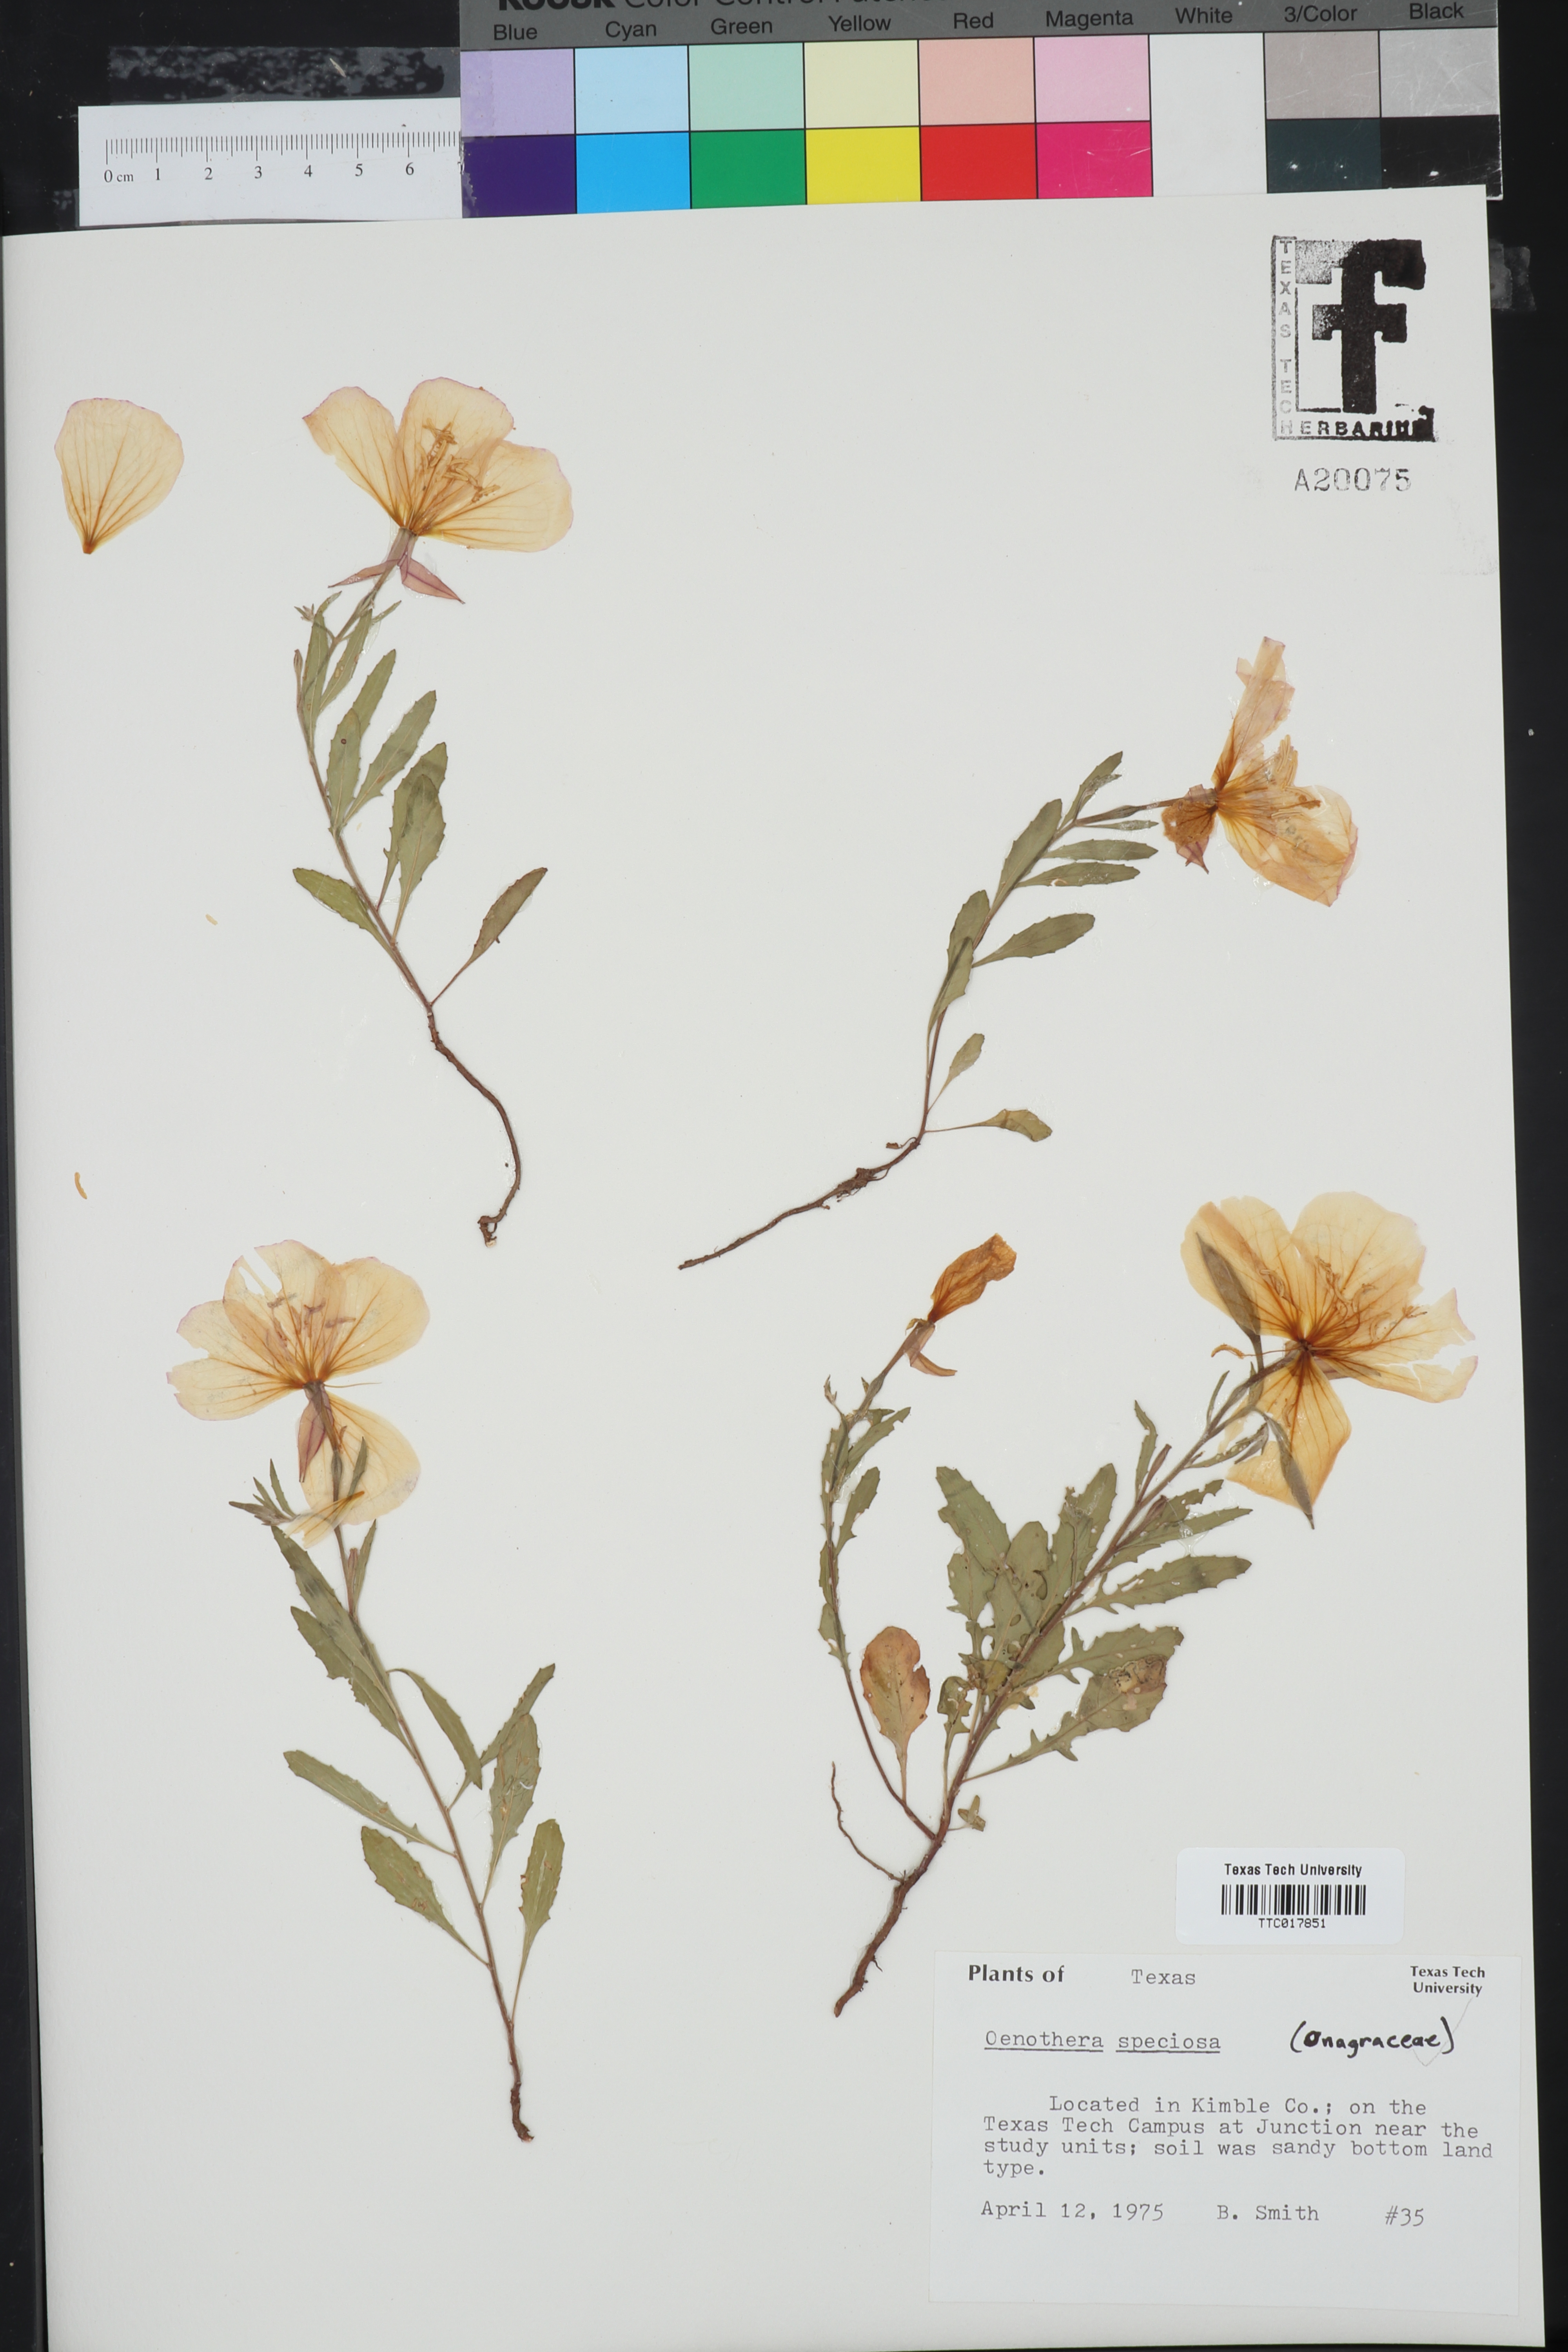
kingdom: Plantae
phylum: Tracheophyta
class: Magnoliopsida
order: Myrtales
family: Onagraceae
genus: Oenothera
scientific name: Oenothera speciosa
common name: White evening-primrose
